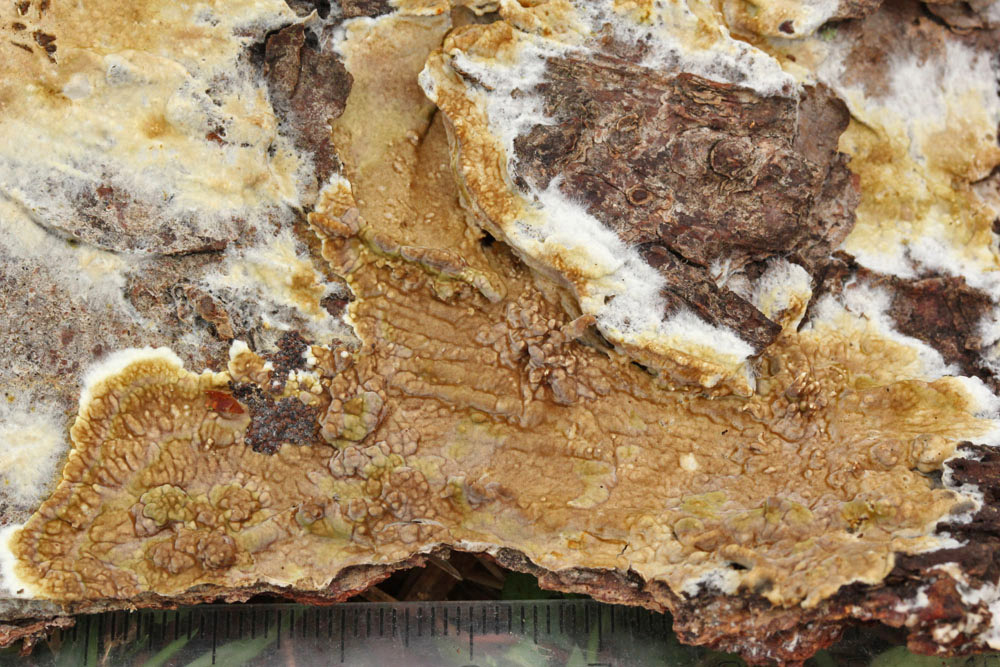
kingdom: Fungi
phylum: Basidiomycota
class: Agaricomycetes
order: Boletales
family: Coniophoraceae
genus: Coniophora
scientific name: Coniophora puteana
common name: gul tømmersvamp
